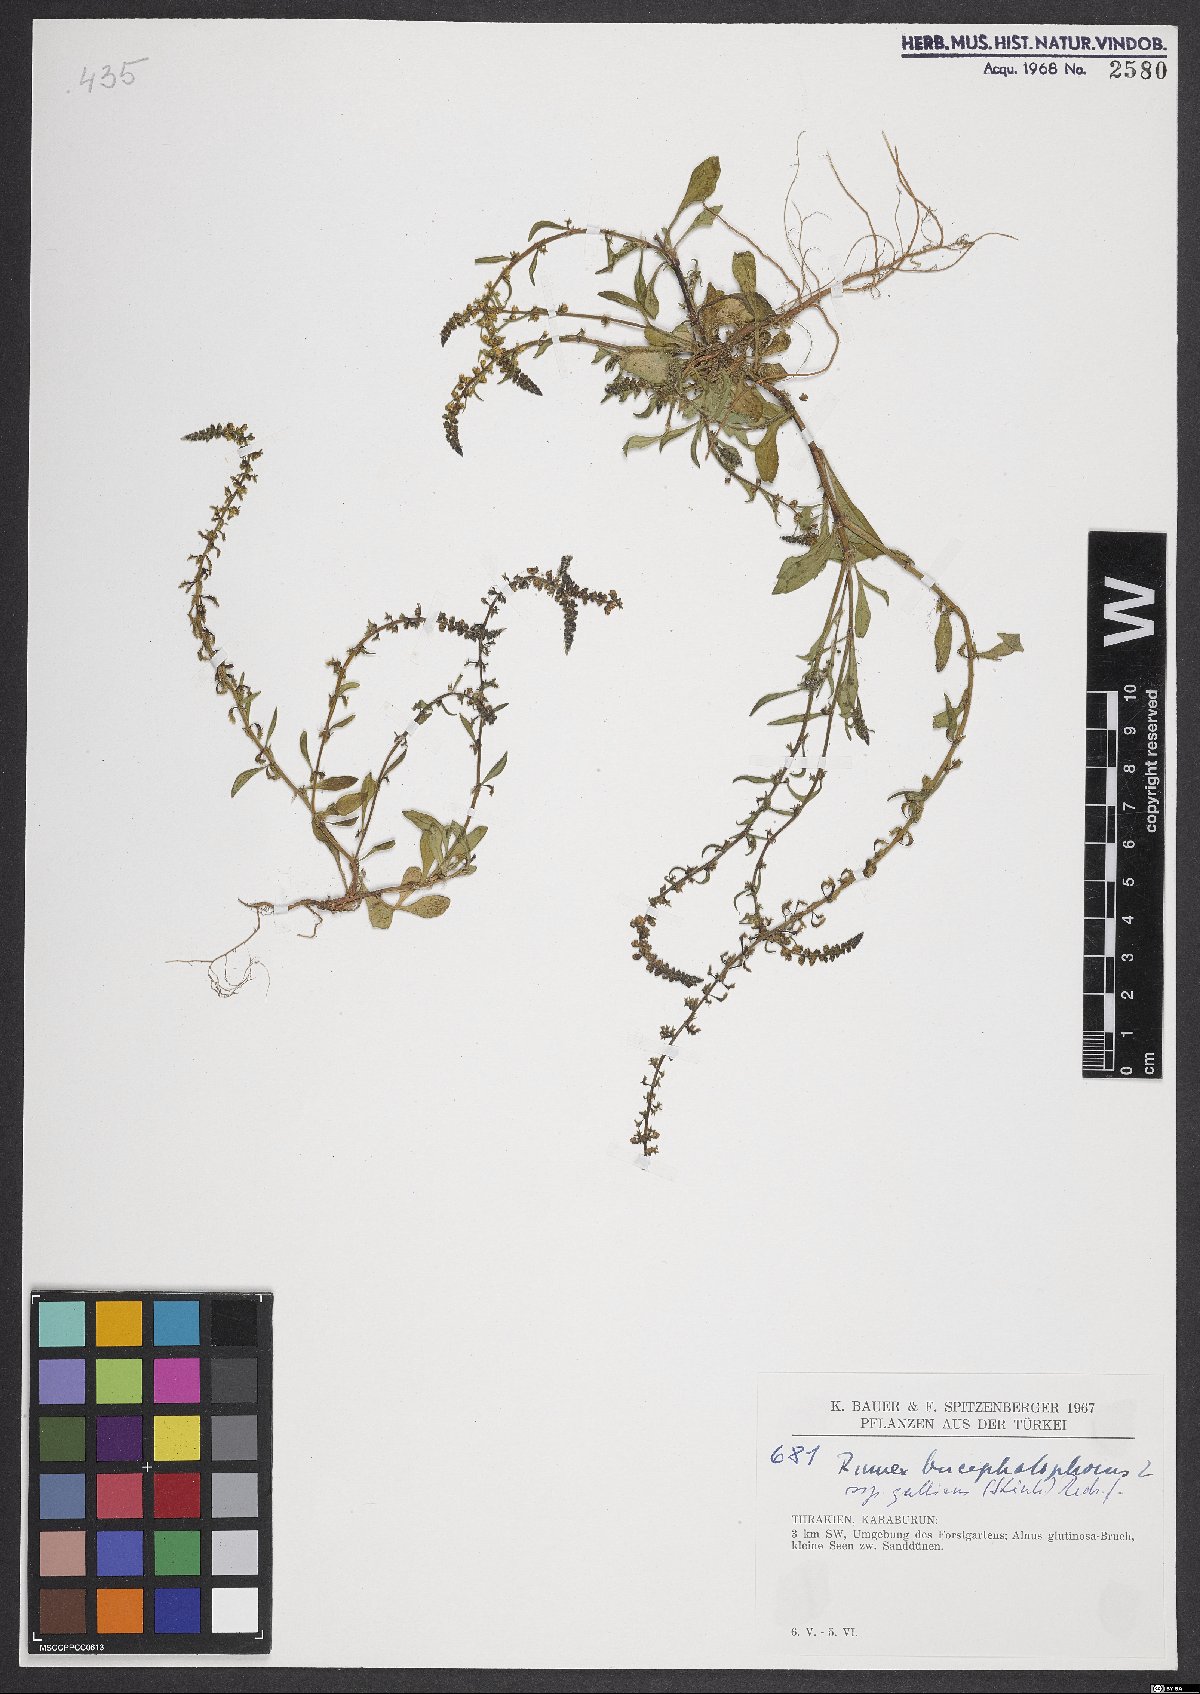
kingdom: Plantae
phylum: Tracheophyta
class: Magnoliopsida
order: Caryophyllales
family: Polygonaceae
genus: Rumex
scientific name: Rumex bucephalophorus
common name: Red dock
